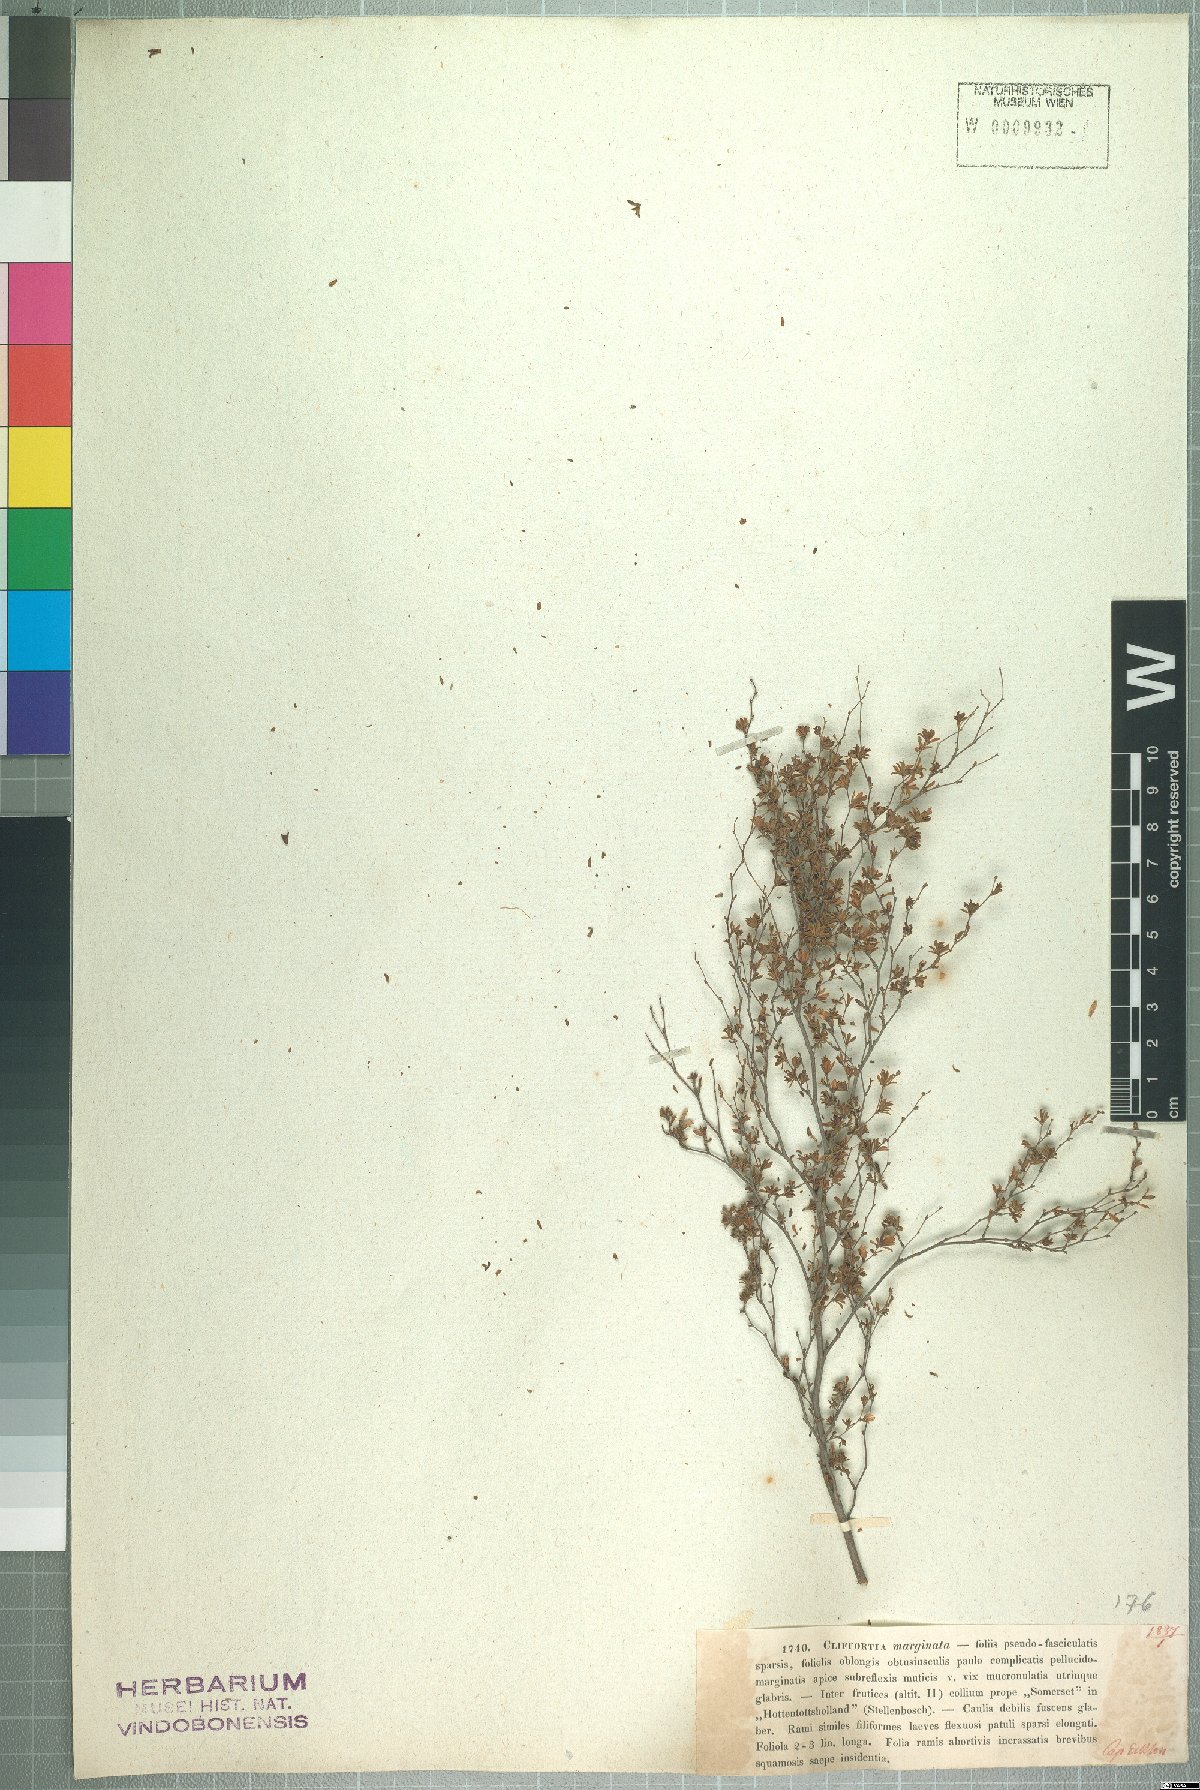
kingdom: Plantae
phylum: Tracheophyta
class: Magnoliopsida
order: Rosales
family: Rosaceae
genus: Cliffortia
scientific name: Cliffortia marginata
